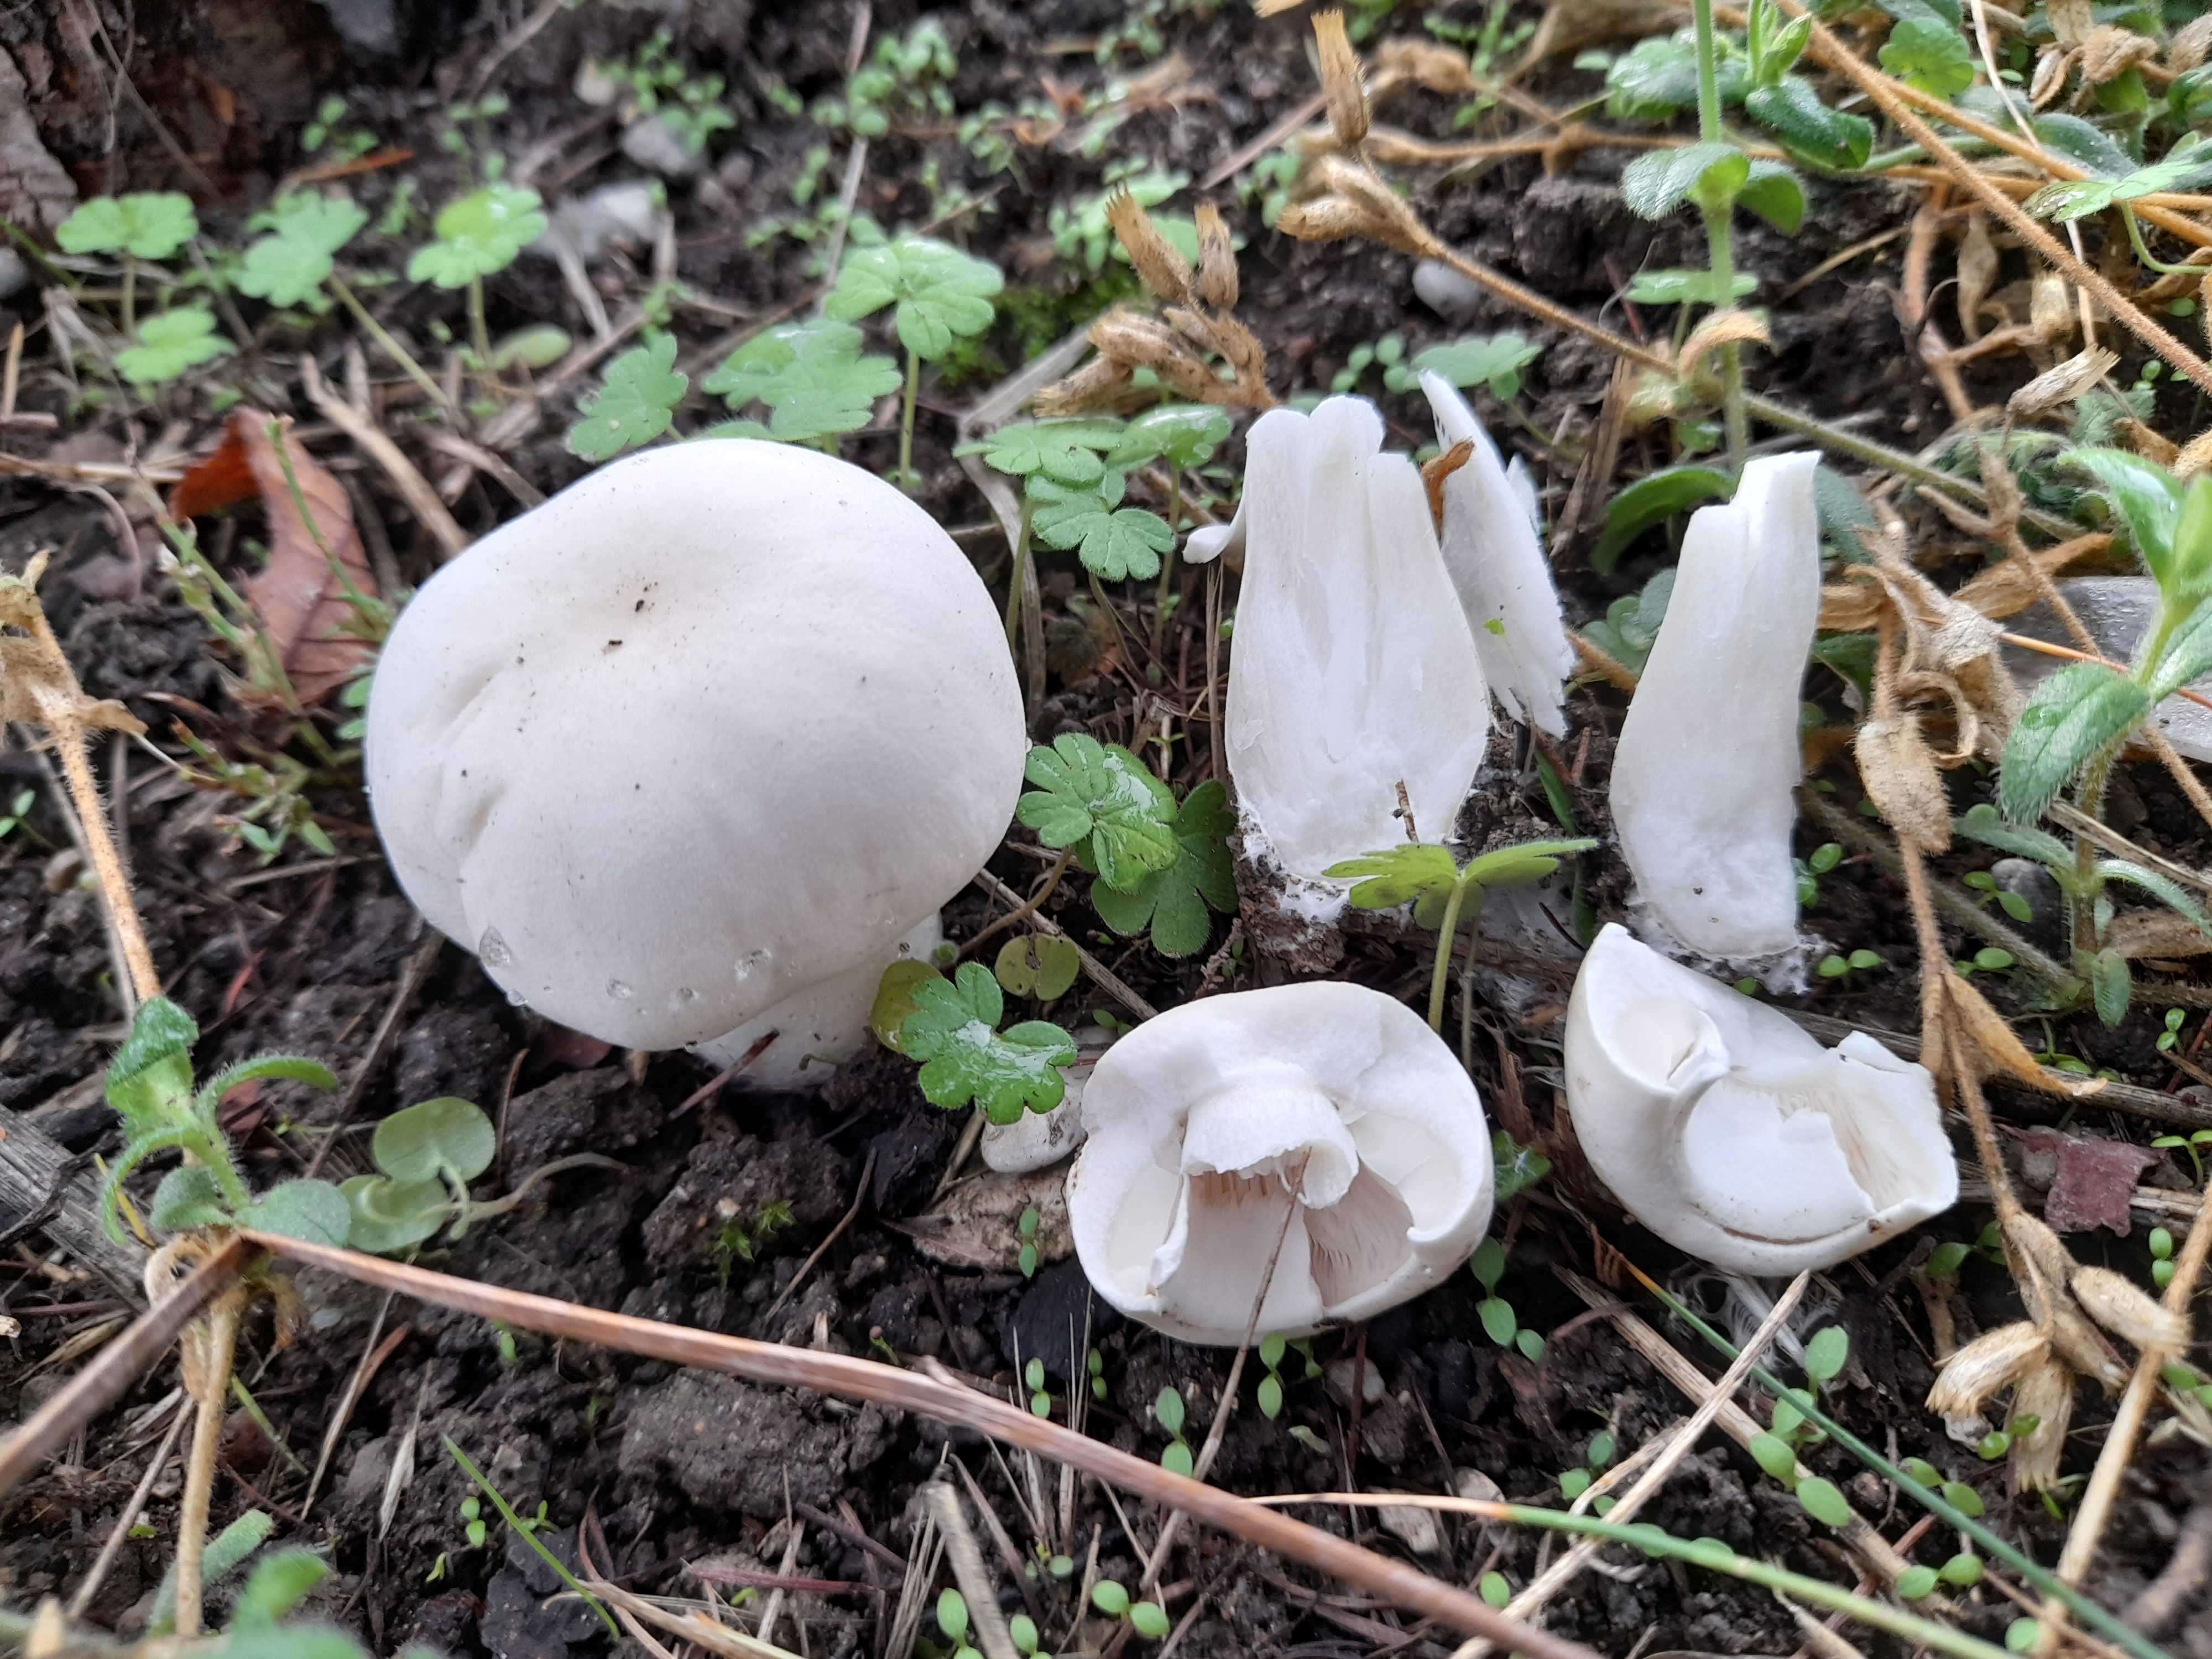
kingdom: Fungi
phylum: Basidiomycota
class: Agaricomycetes
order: Agaricales
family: Agaricaceae
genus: Agaricus
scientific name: Agaricus
